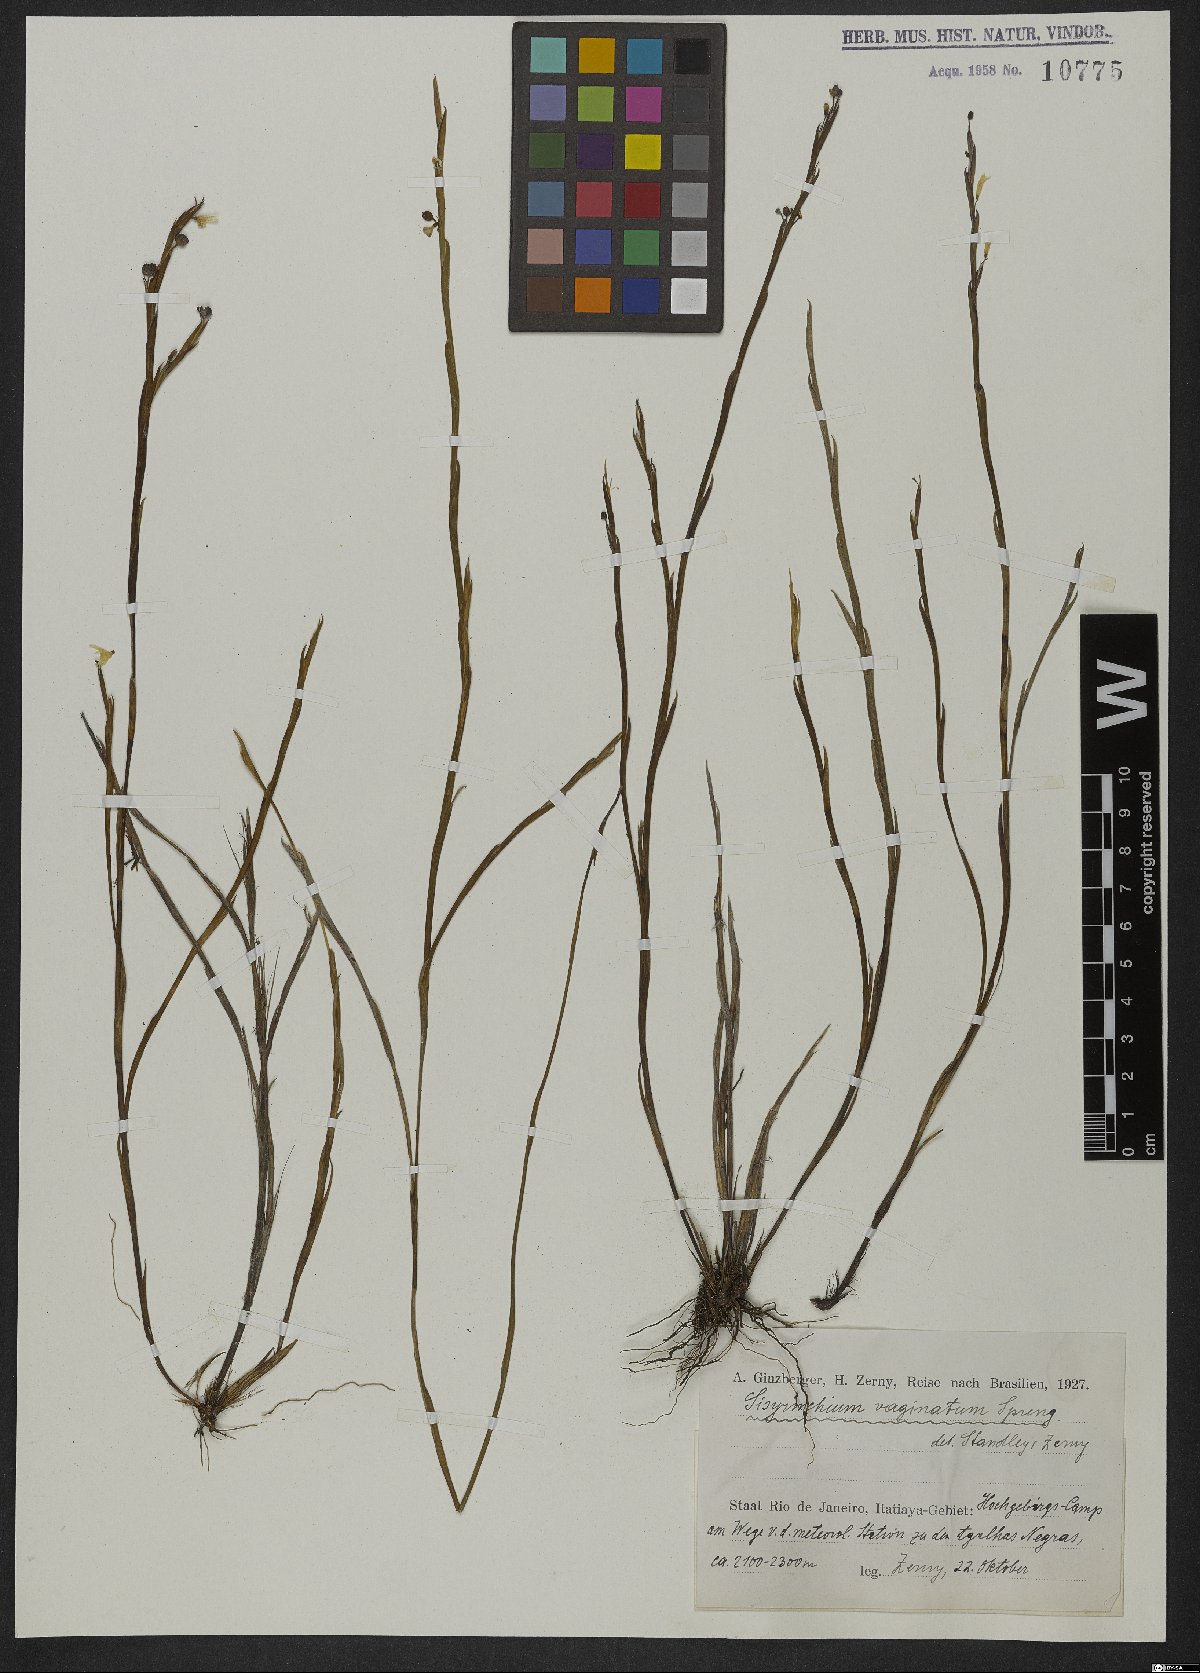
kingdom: Plantae
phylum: Tracheophyta
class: Liliopsida
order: Asparagales
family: Iridaceae
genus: Sisyrinchium
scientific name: Sisyrinchium vaginatum
